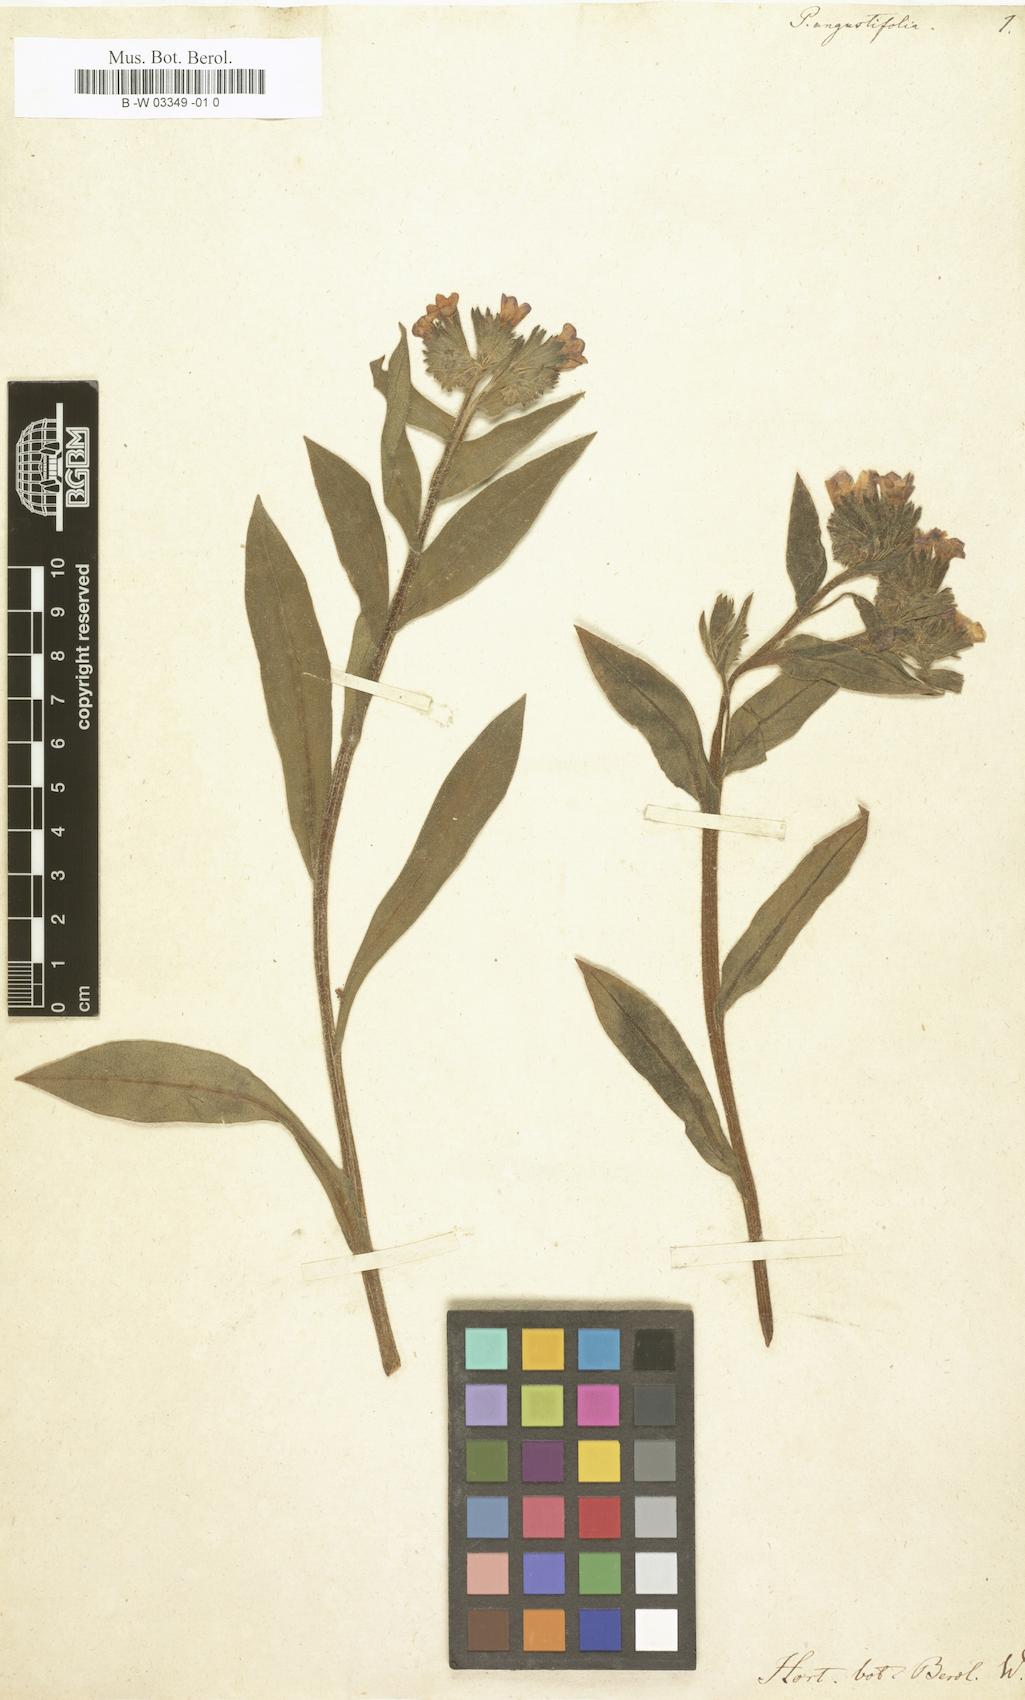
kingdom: Plantae
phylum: Tracheophyta
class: Magnoliopsida
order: Boraginales
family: Boraginaceae
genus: Pulmonaria
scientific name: Pulmonaria angustifolia
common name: Blue cowslip
